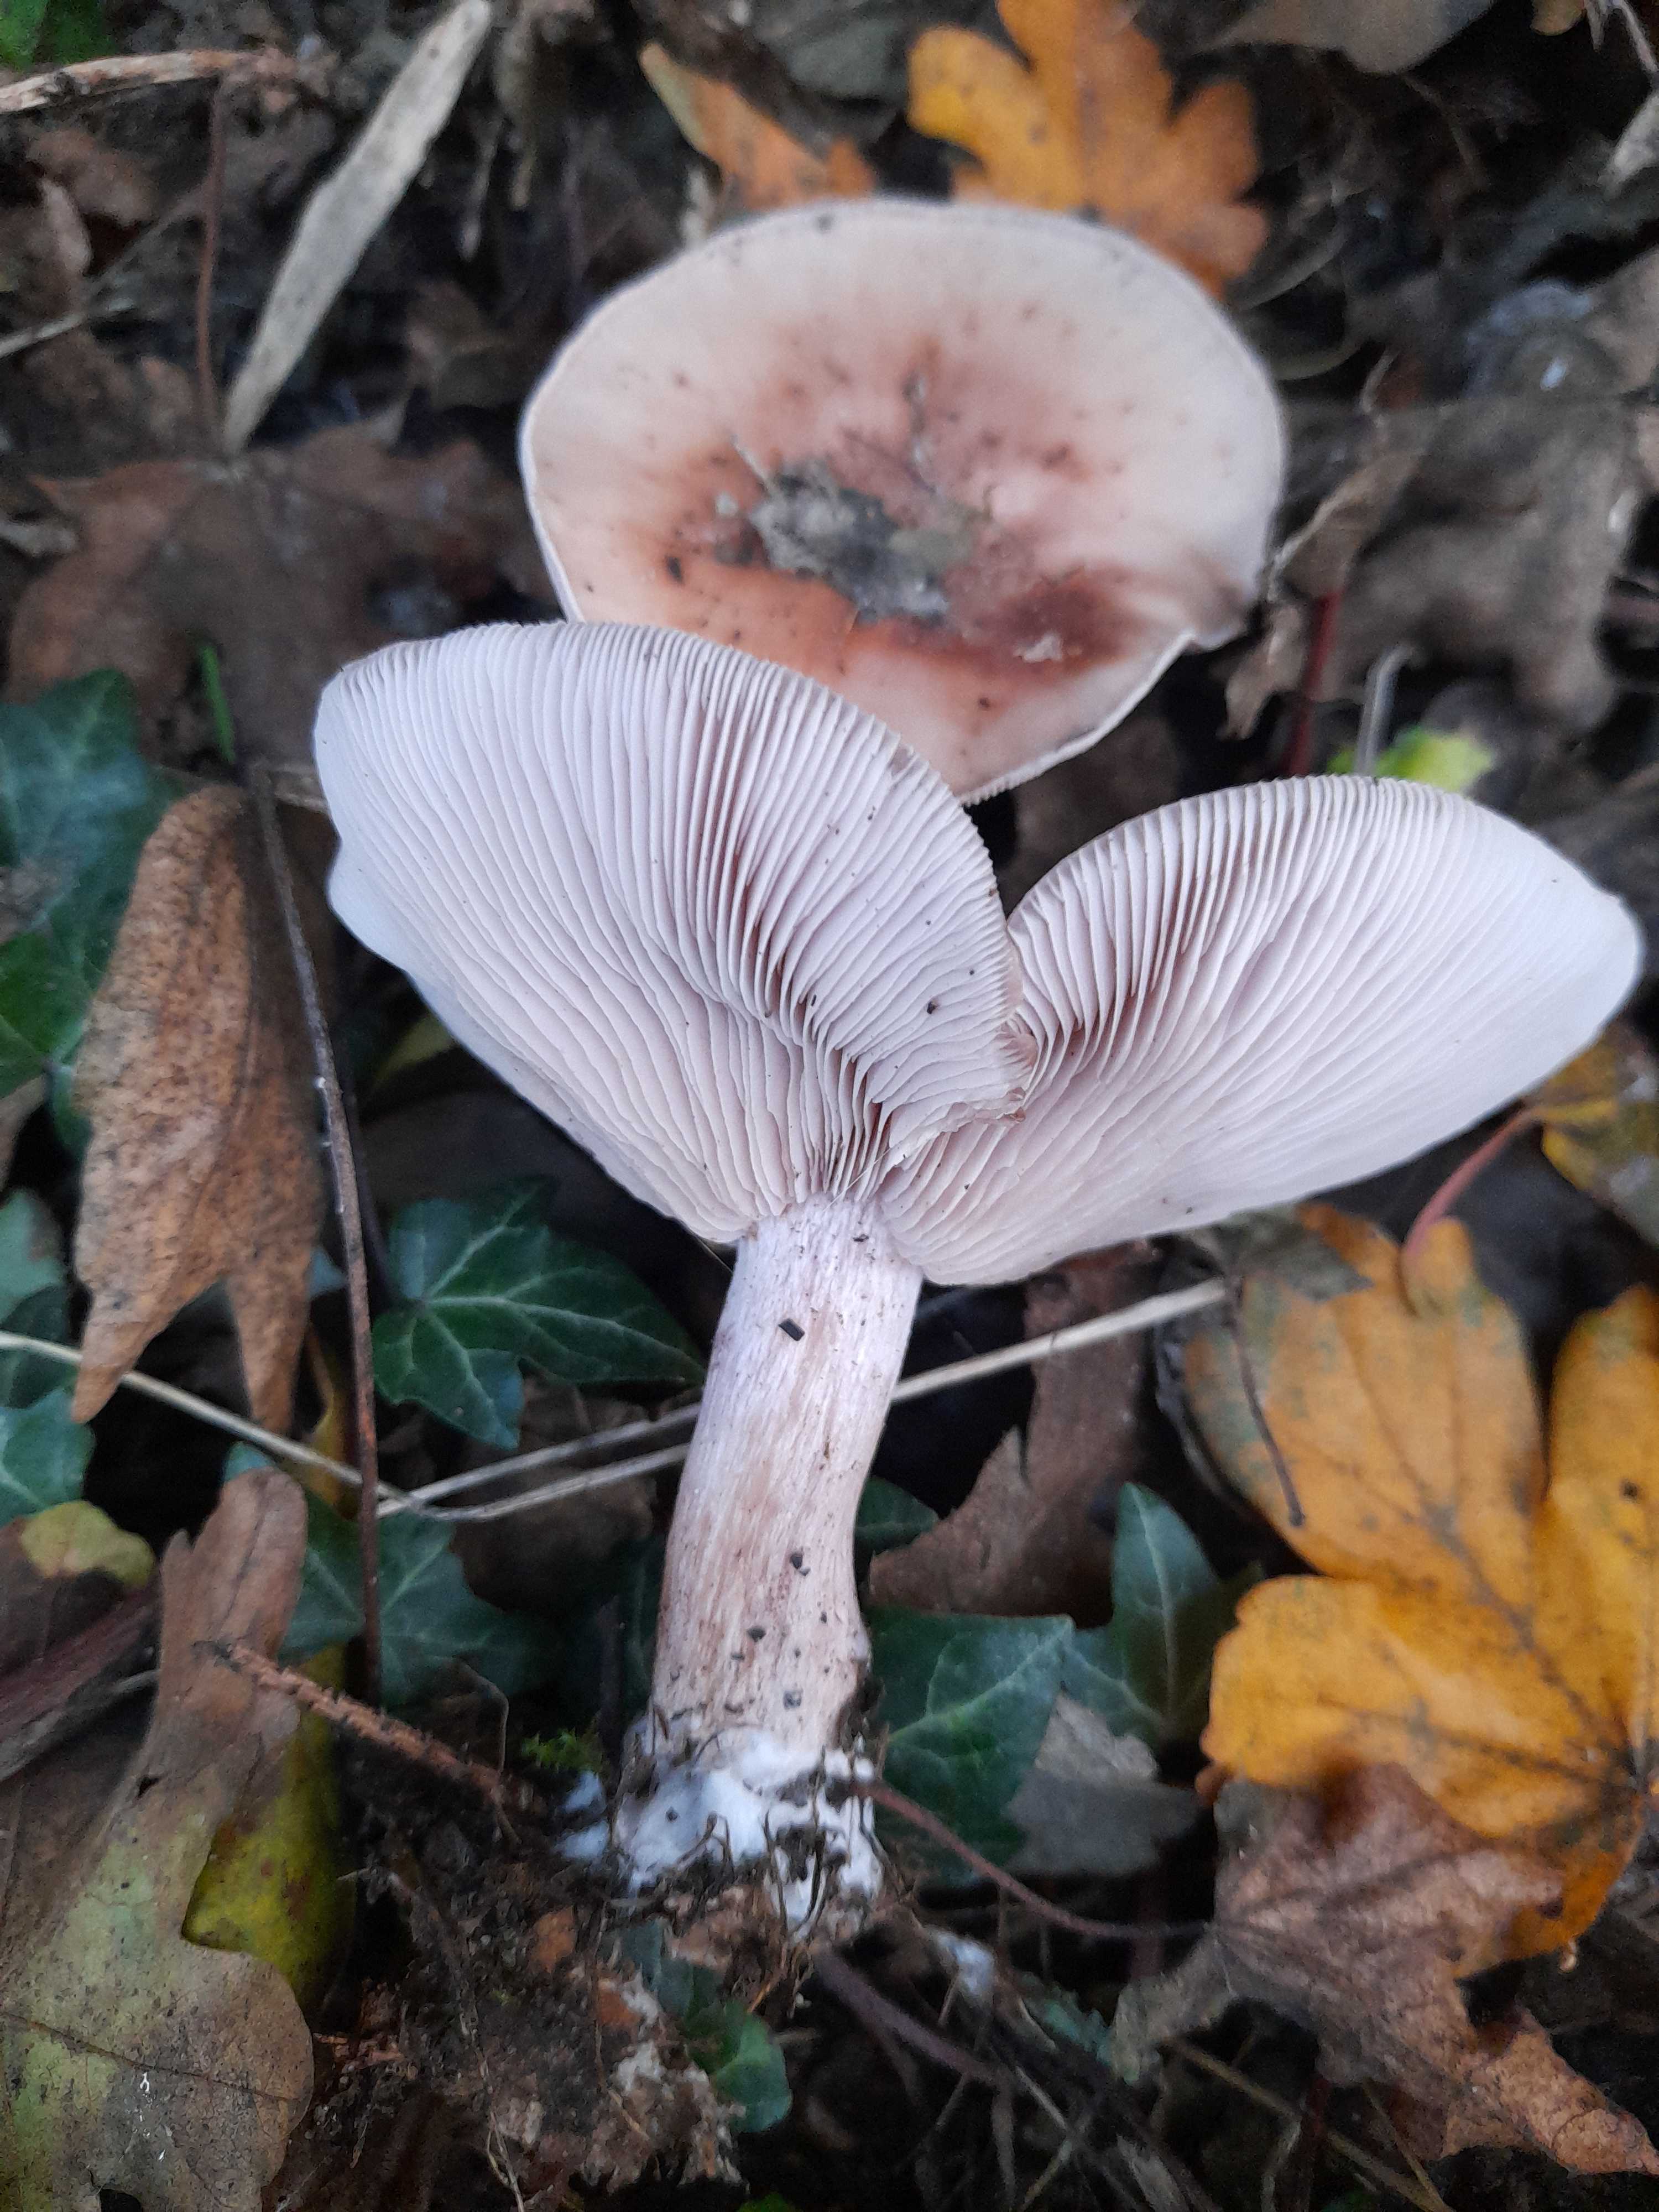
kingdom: Fungi
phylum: Basidiomycota
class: Agaricomycetes
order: Agaricales
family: Tricholomataceae
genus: Lepista
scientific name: Lepista nuda
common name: violet hekseringshat
